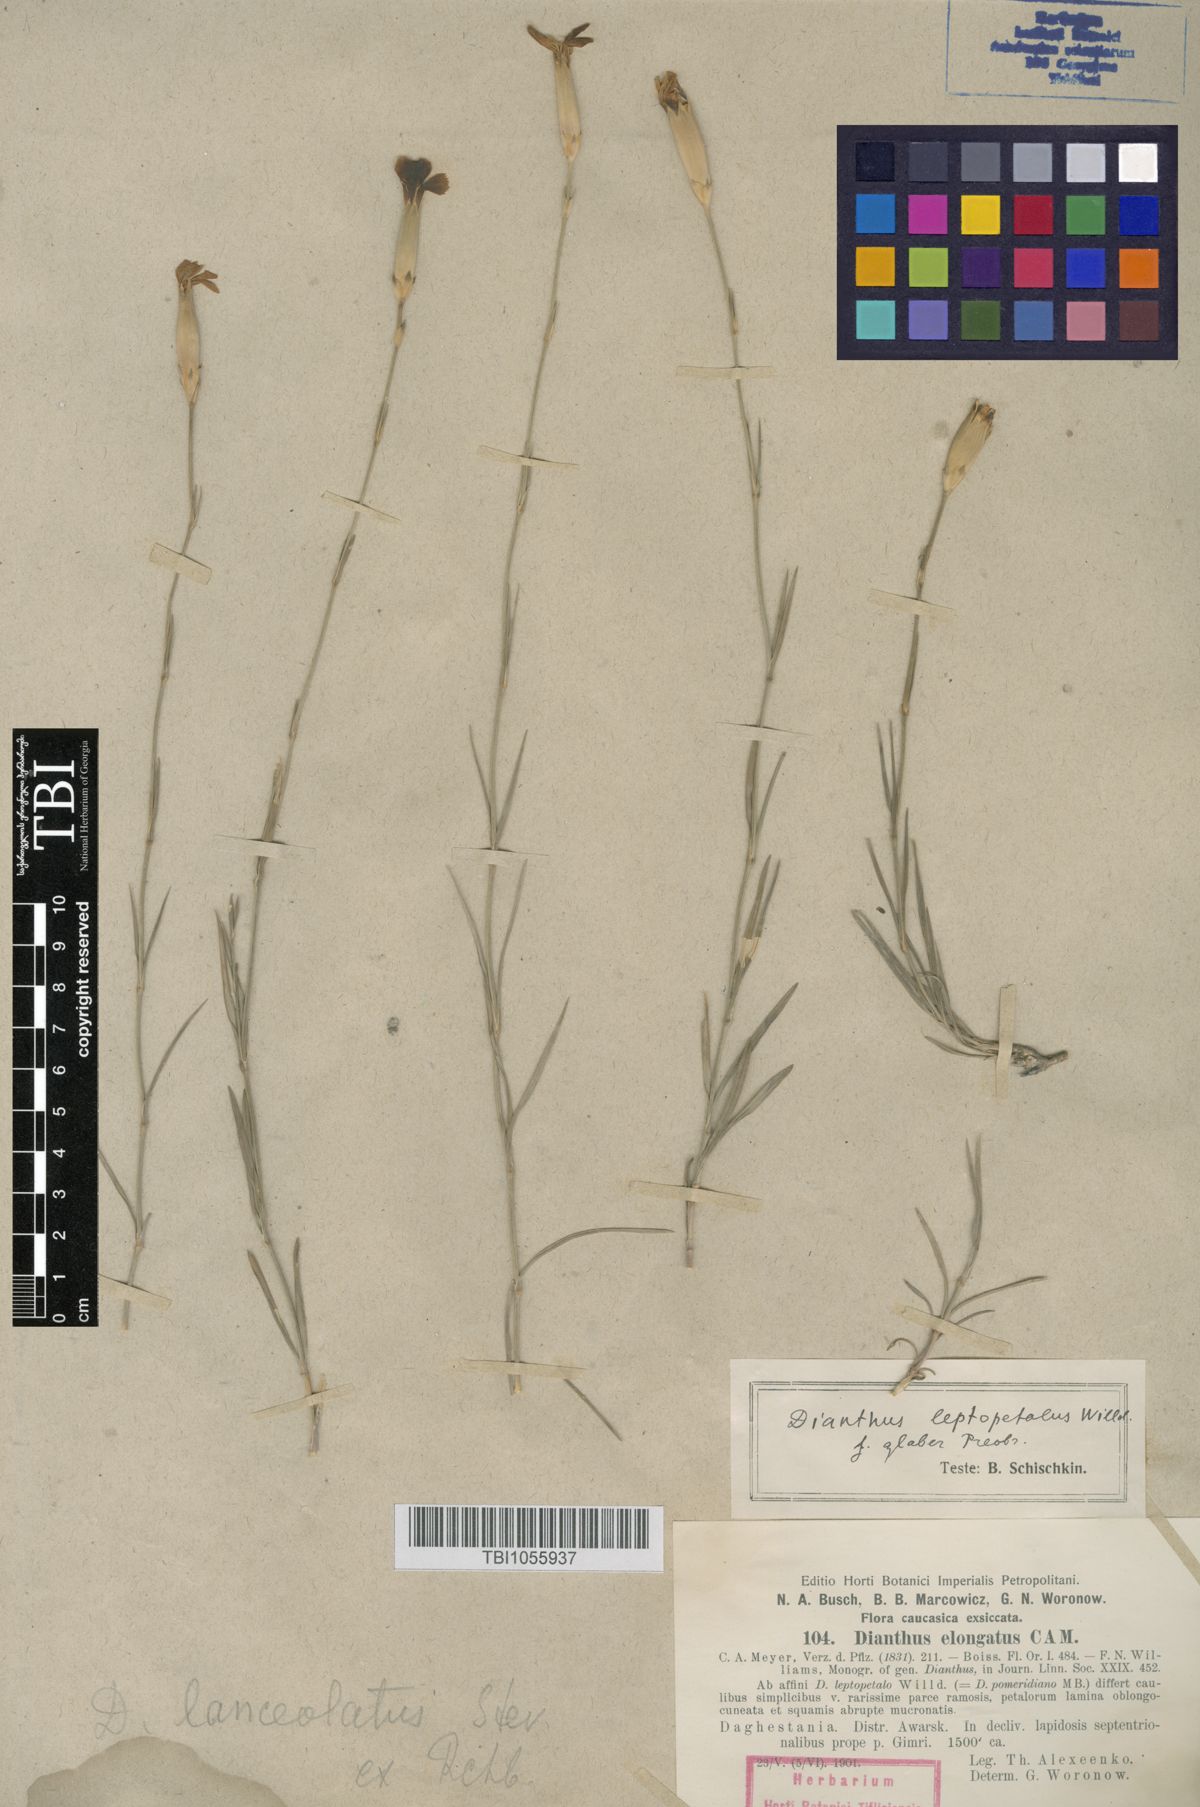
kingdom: Plantae
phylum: Tracheophyta
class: Magnoliopsida
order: Caryophyllales
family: Caryophyllaceae
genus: Dianthus
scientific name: Dianthus leptopetalus
